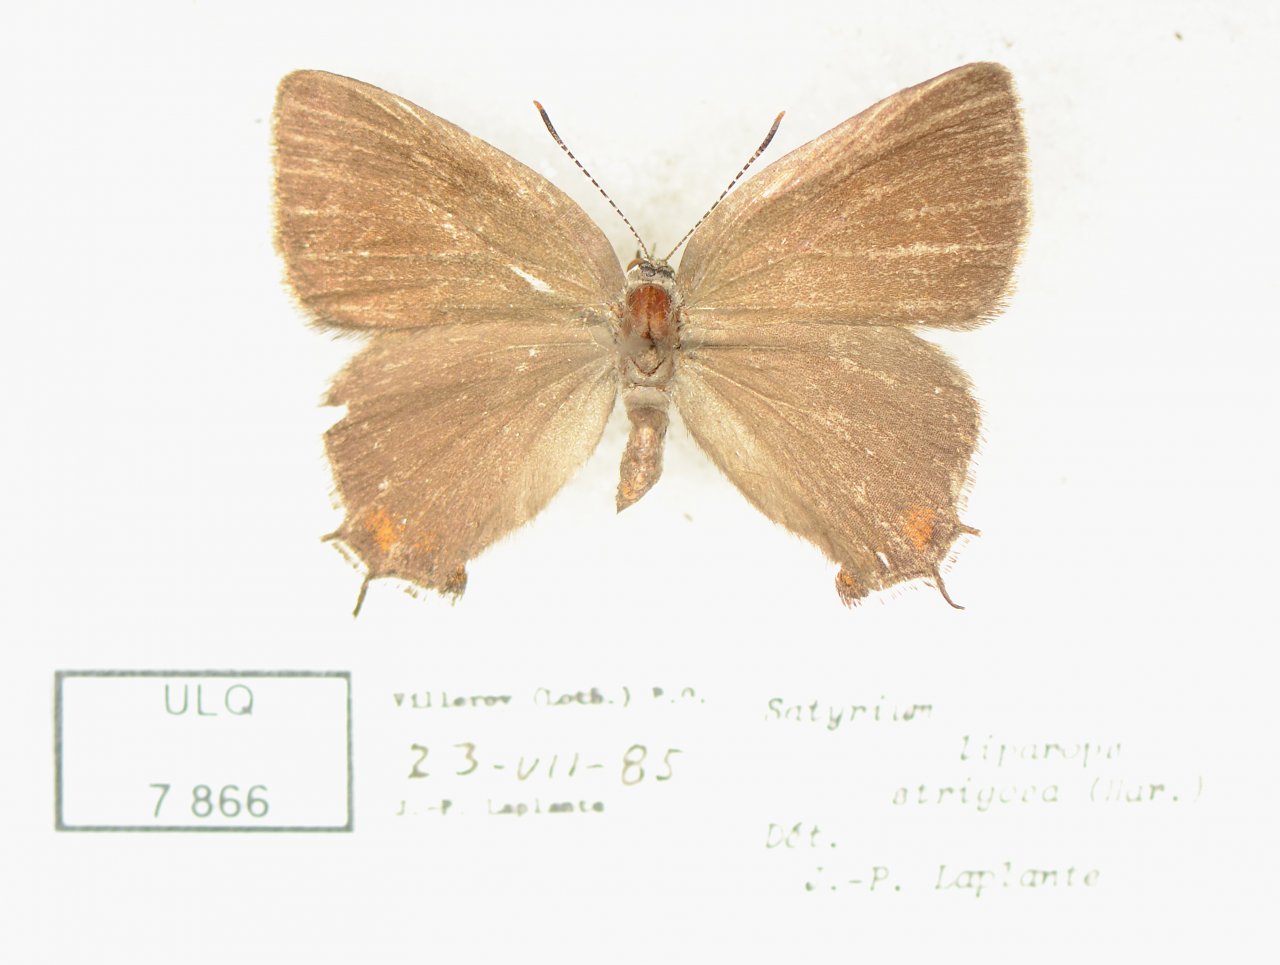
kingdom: Animalia
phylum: Arthropoda
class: Insecta
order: Lepidoptera
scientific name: Lepidoptera
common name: Butterflies
